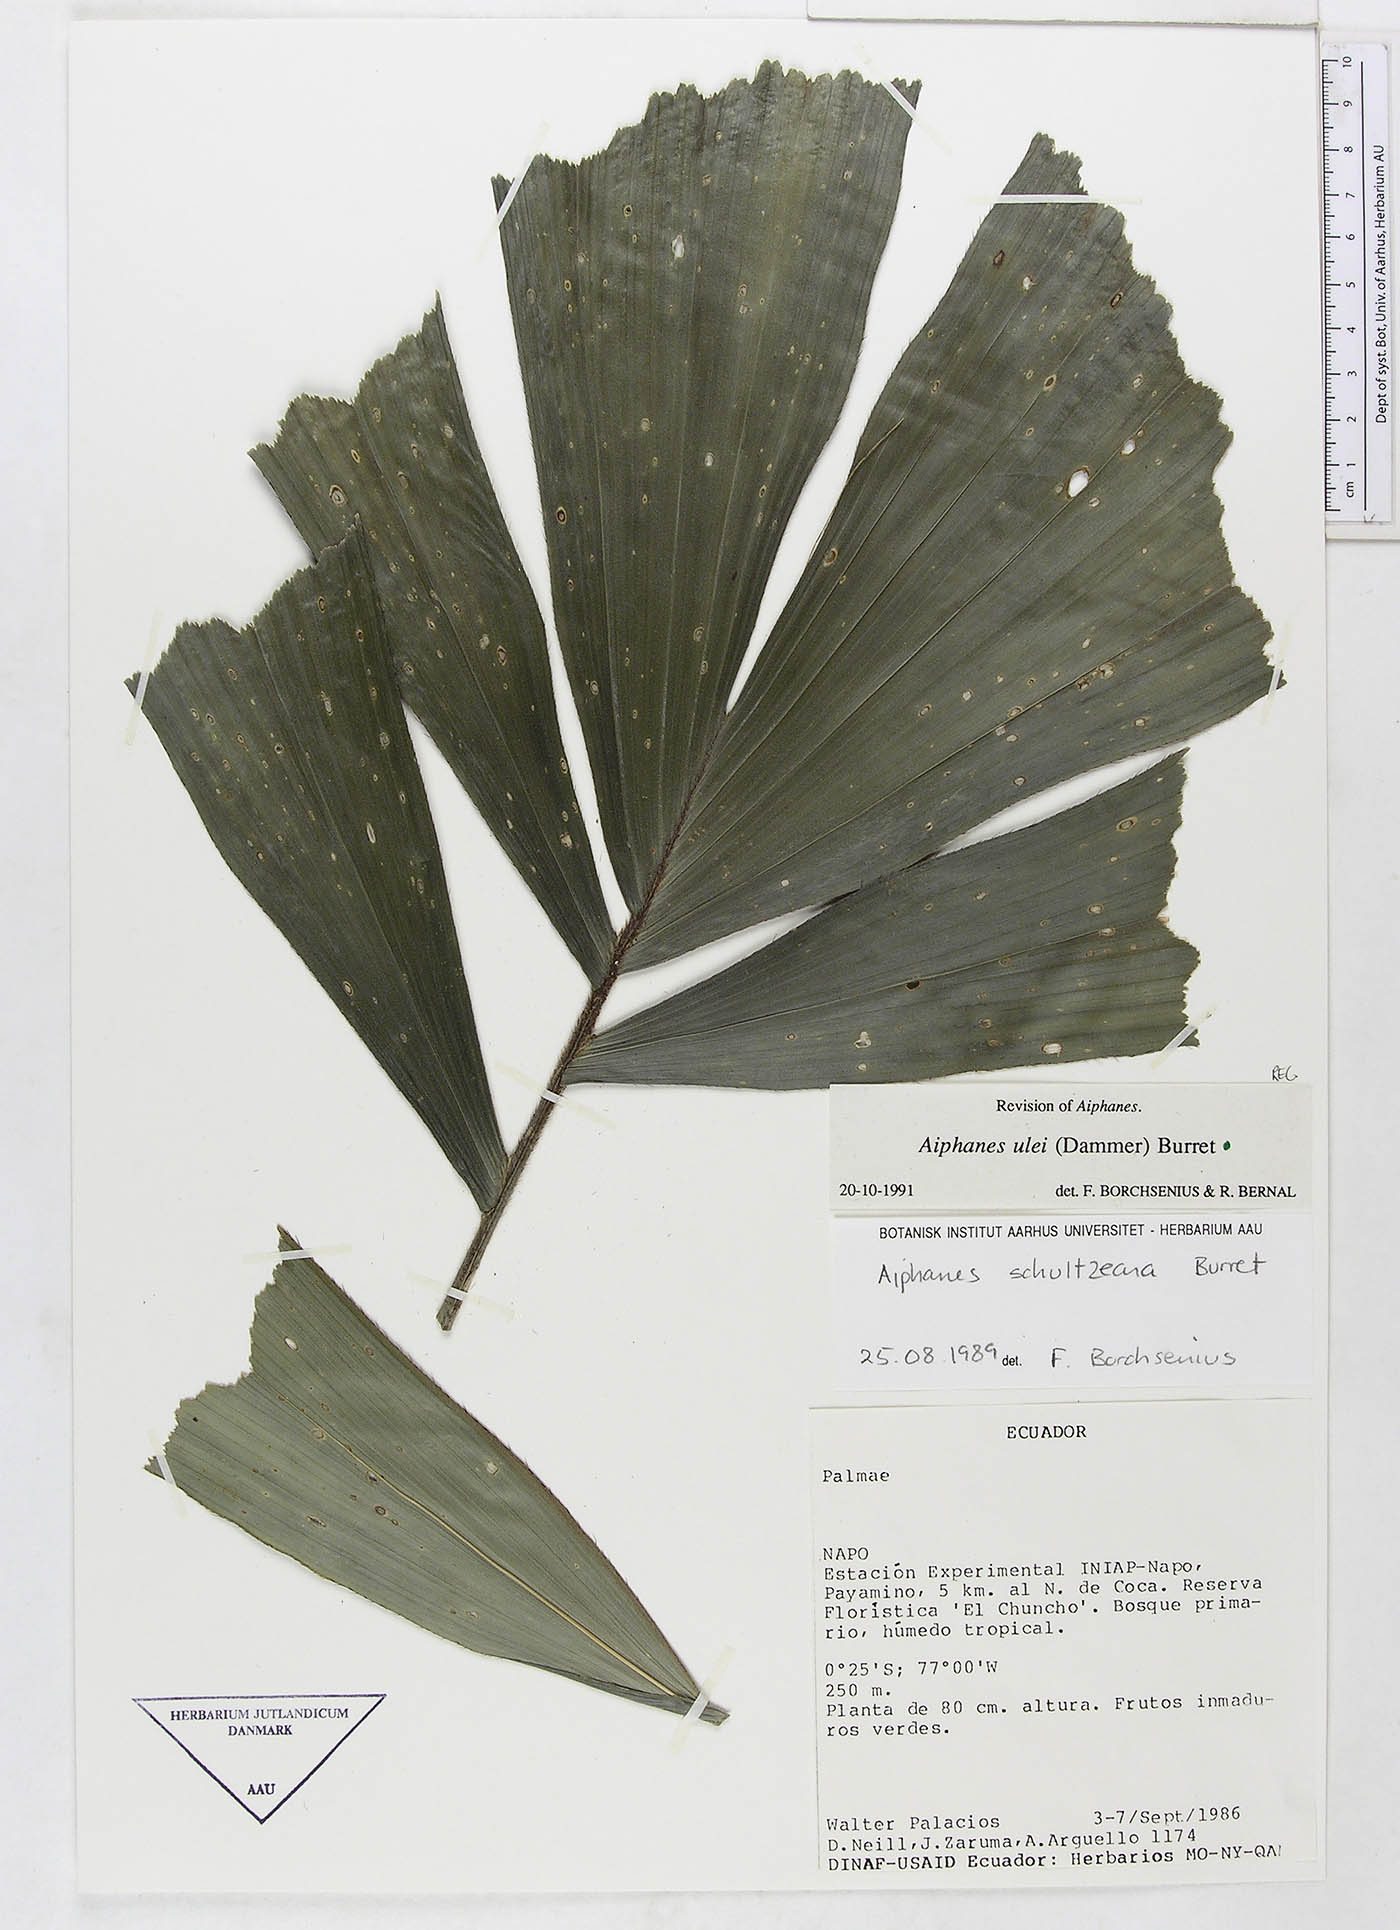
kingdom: Plantae
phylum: Tracheophyta
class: Liliopsida
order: Arecales
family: Arecaceae
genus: Aiphanes
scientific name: Aiphanes ulei
